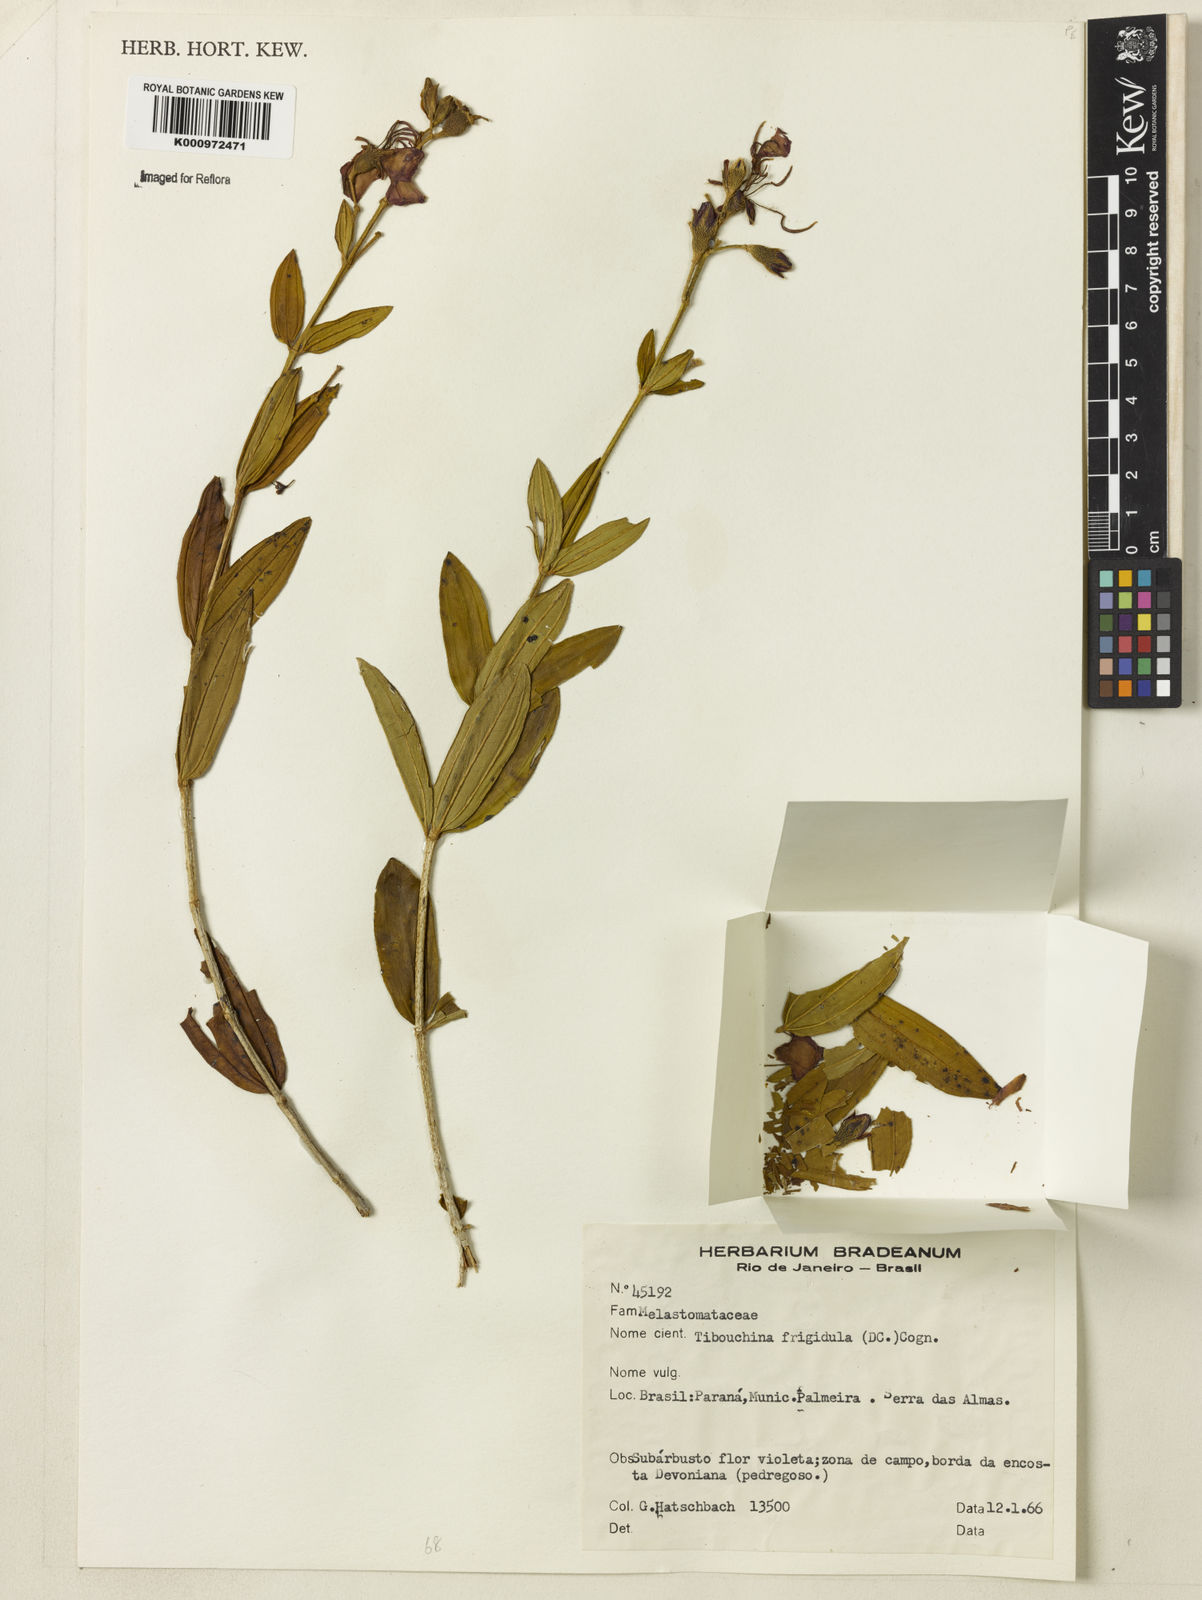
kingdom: Plantae
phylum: Tracheophyta
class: Magnoliopsida
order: Myrtales
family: Melastomataceae
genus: Pleroma
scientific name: Pleroma martiusianum
